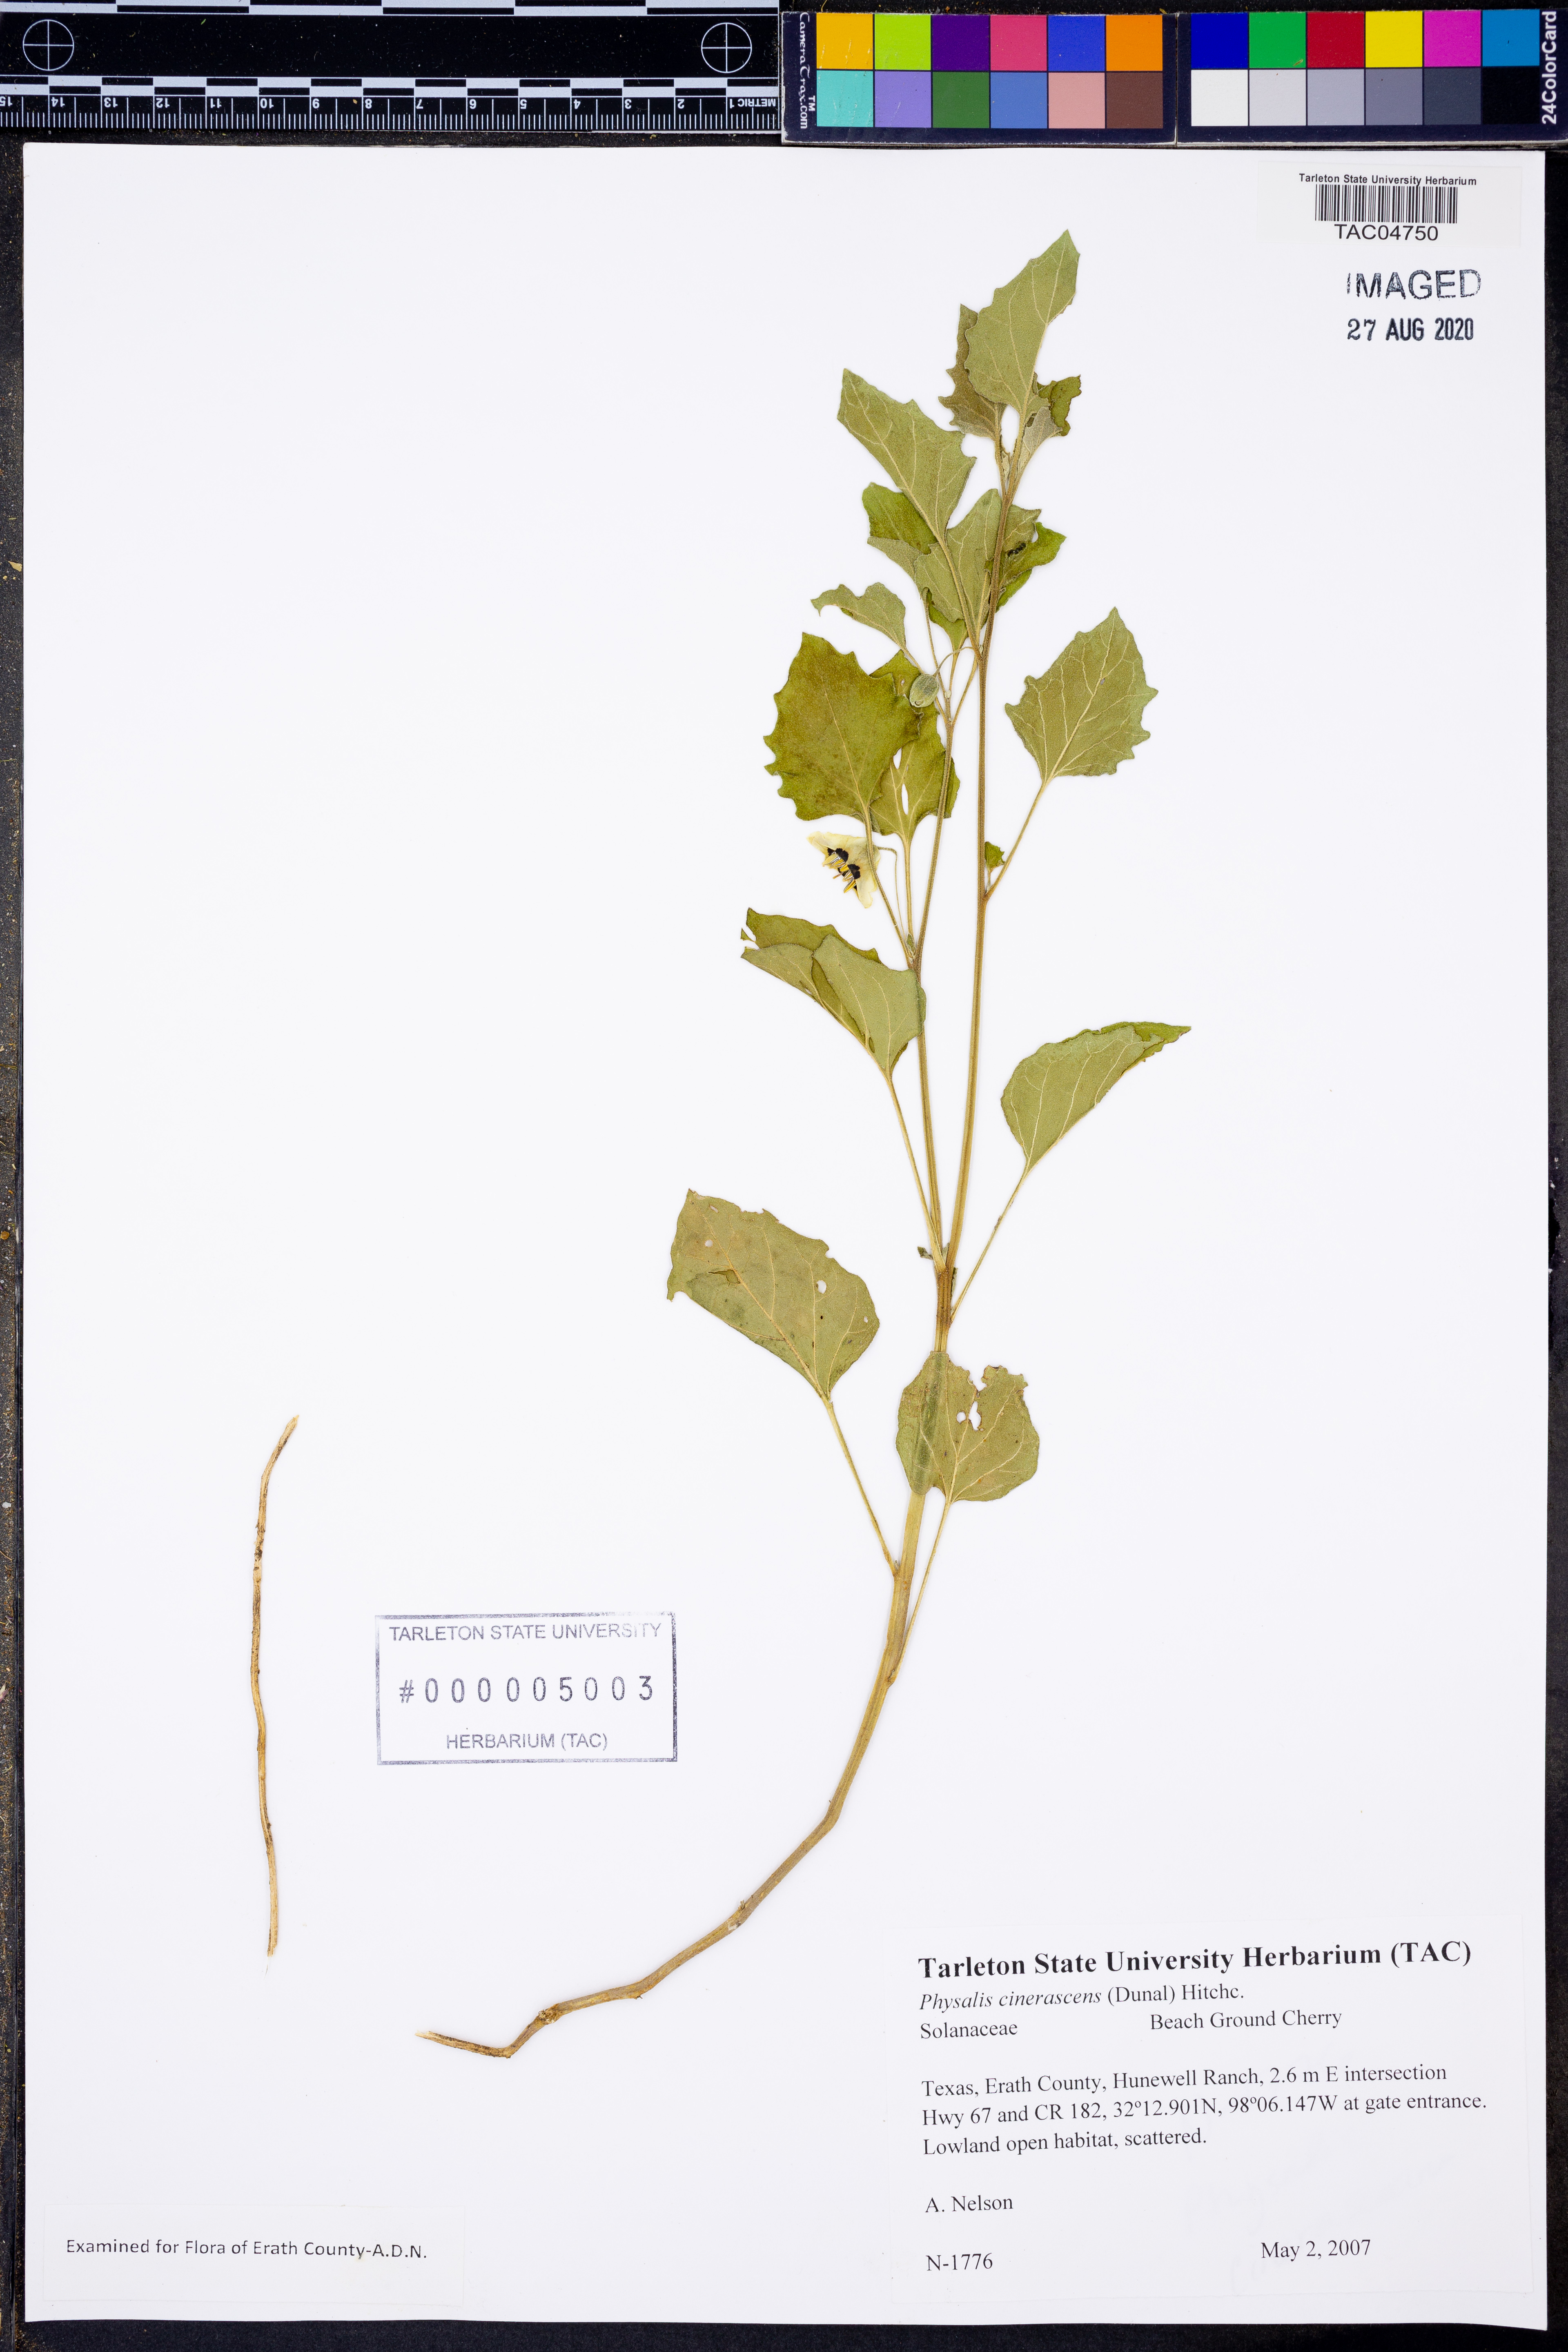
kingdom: Plantae
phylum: Tracheophyta
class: Magnoliopsida
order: Solanales
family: Solanaceae
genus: Physalis
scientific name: Physalis cinerascens
